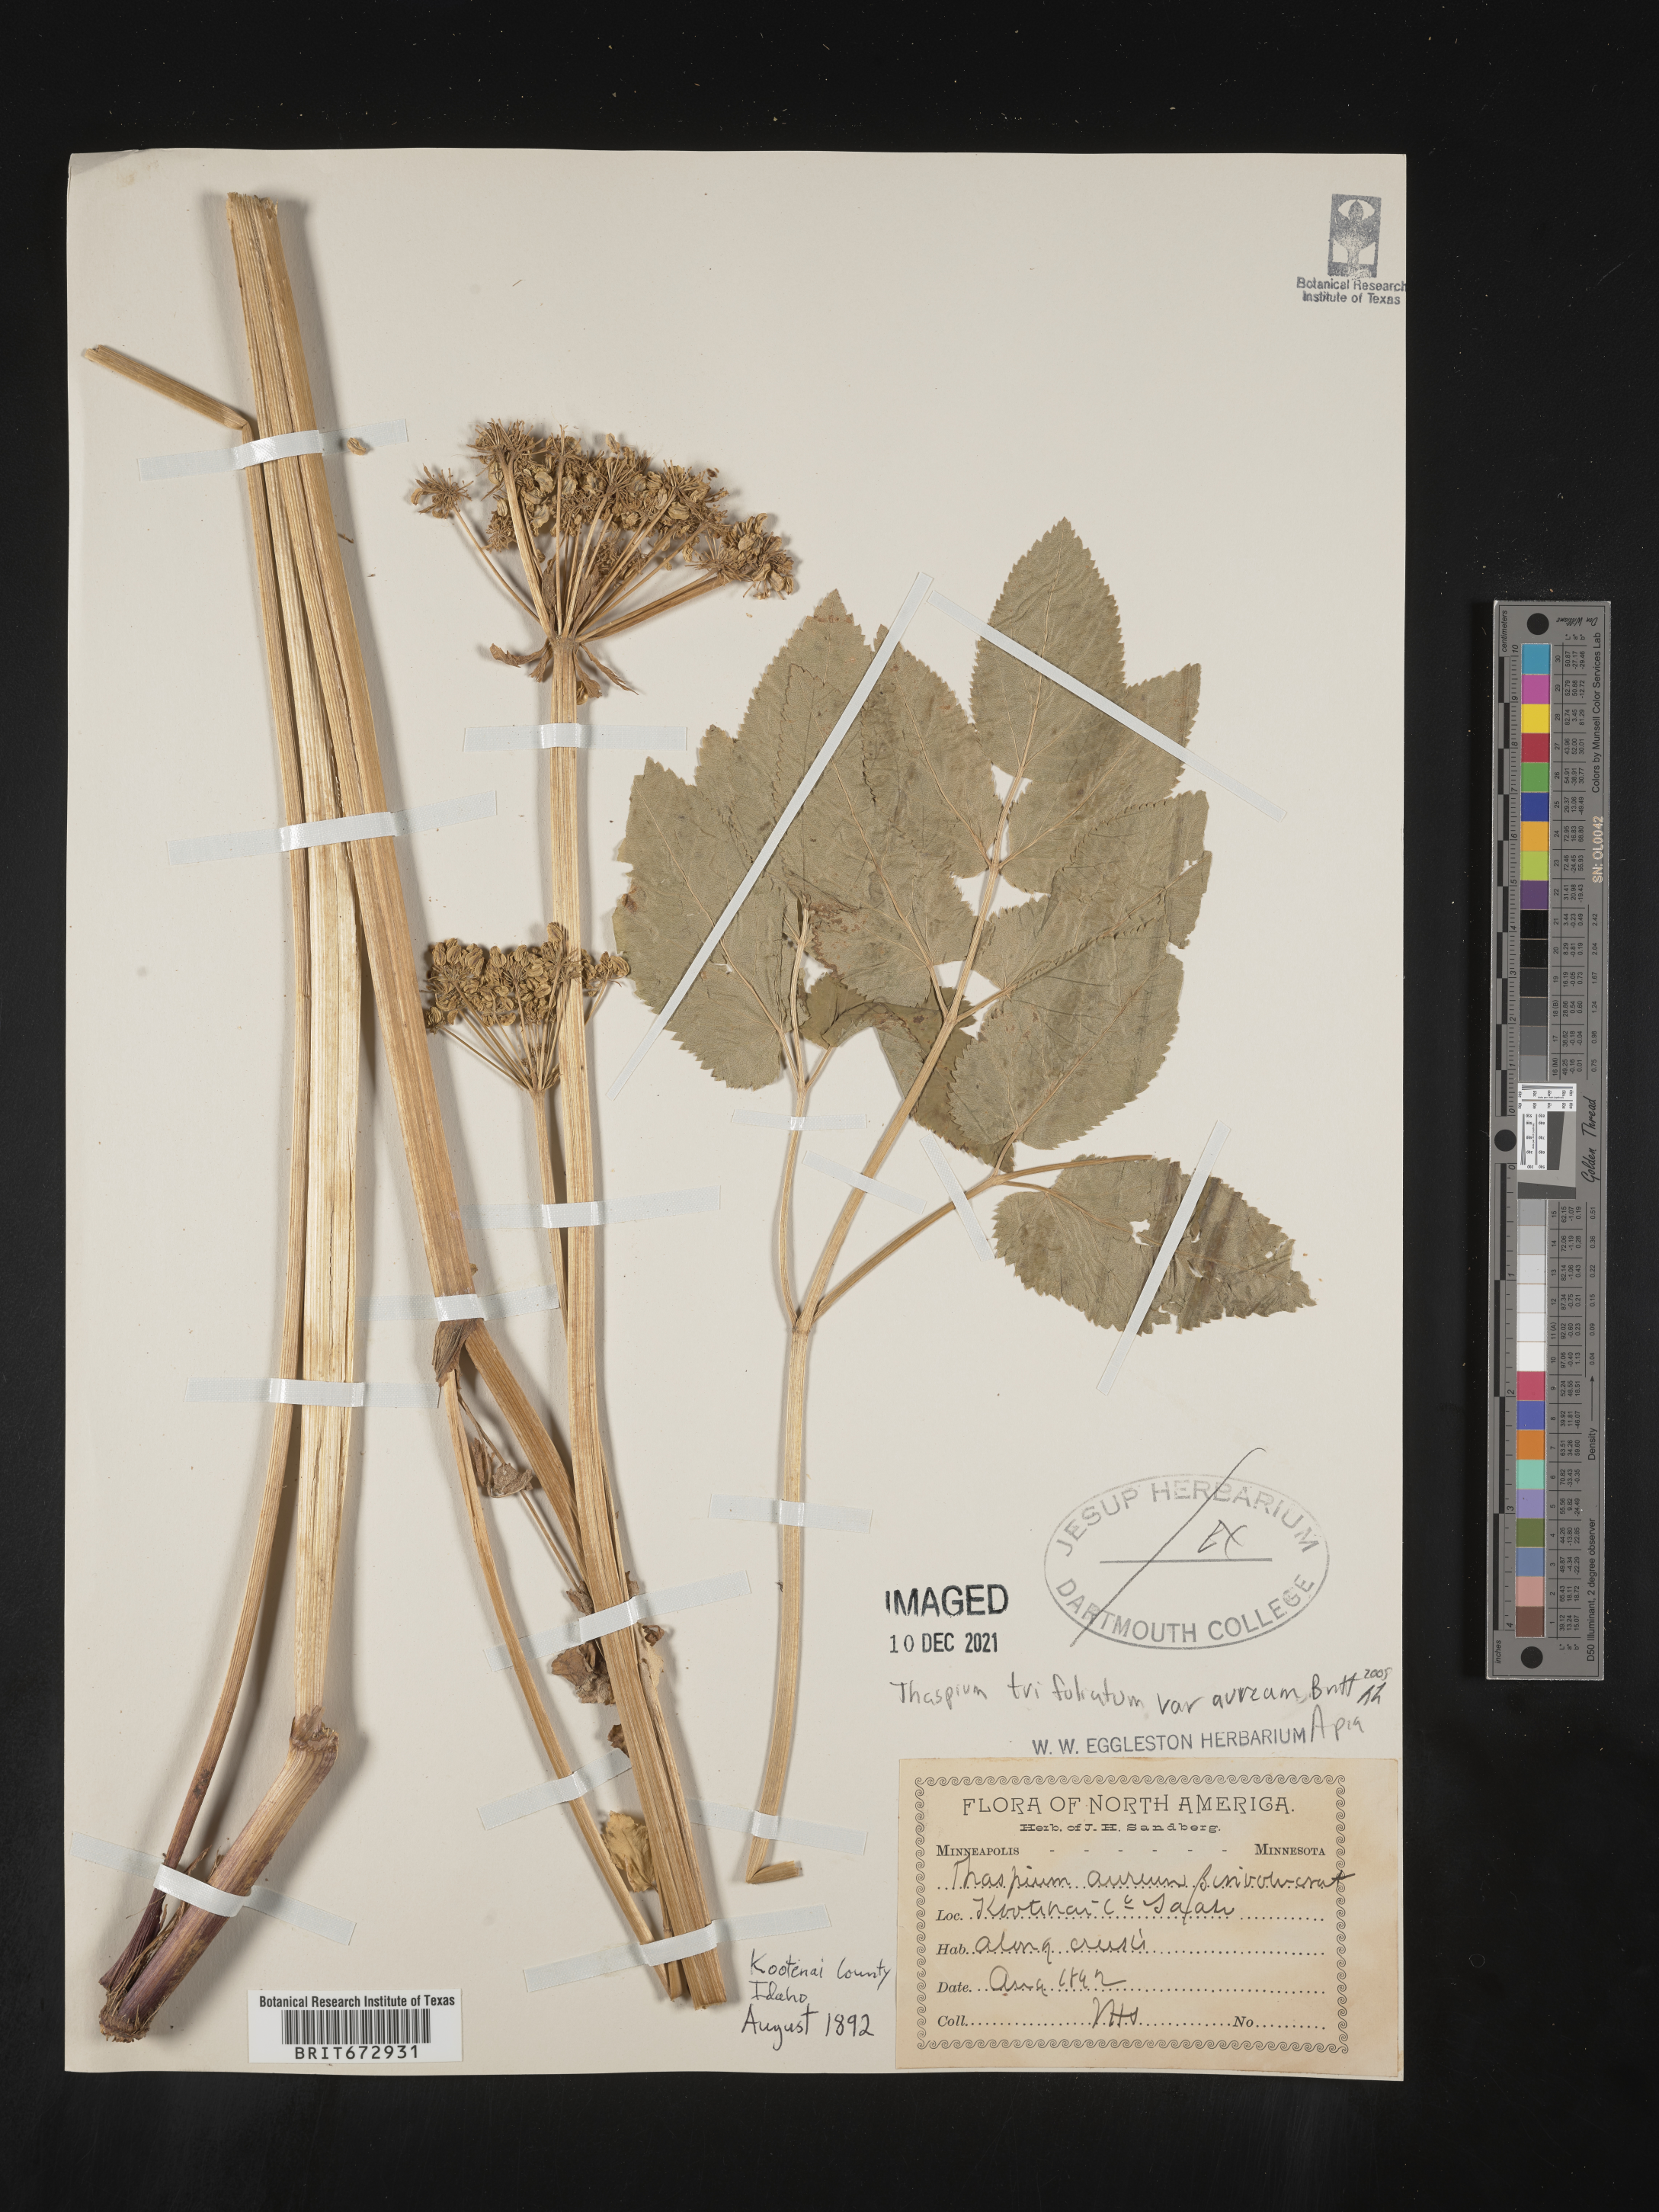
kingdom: Plantae
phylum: Tracheophyta
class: Magnoliopsida
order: Apiales
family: Apiaceae
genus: Thaspium
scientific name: Thaspium
